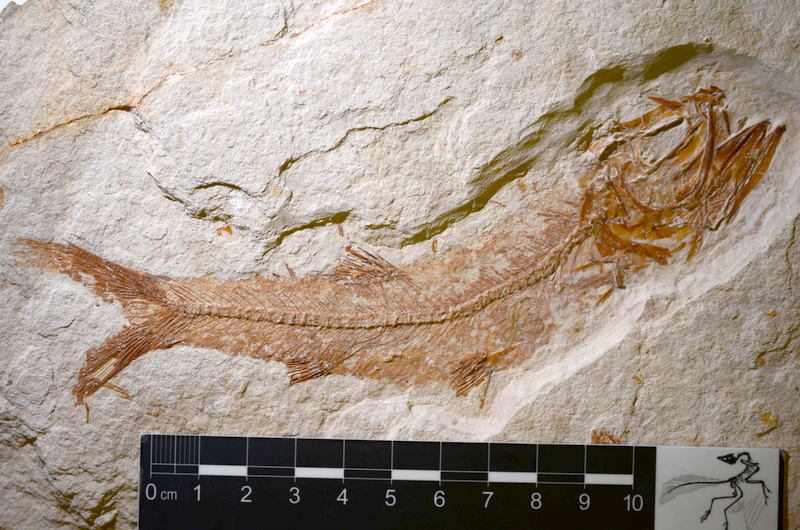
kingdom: Animalia
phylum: Chordata
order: Elopiformes
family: Anaethalionidae
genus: Anaethalion
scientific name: Anaethalion zapporum
